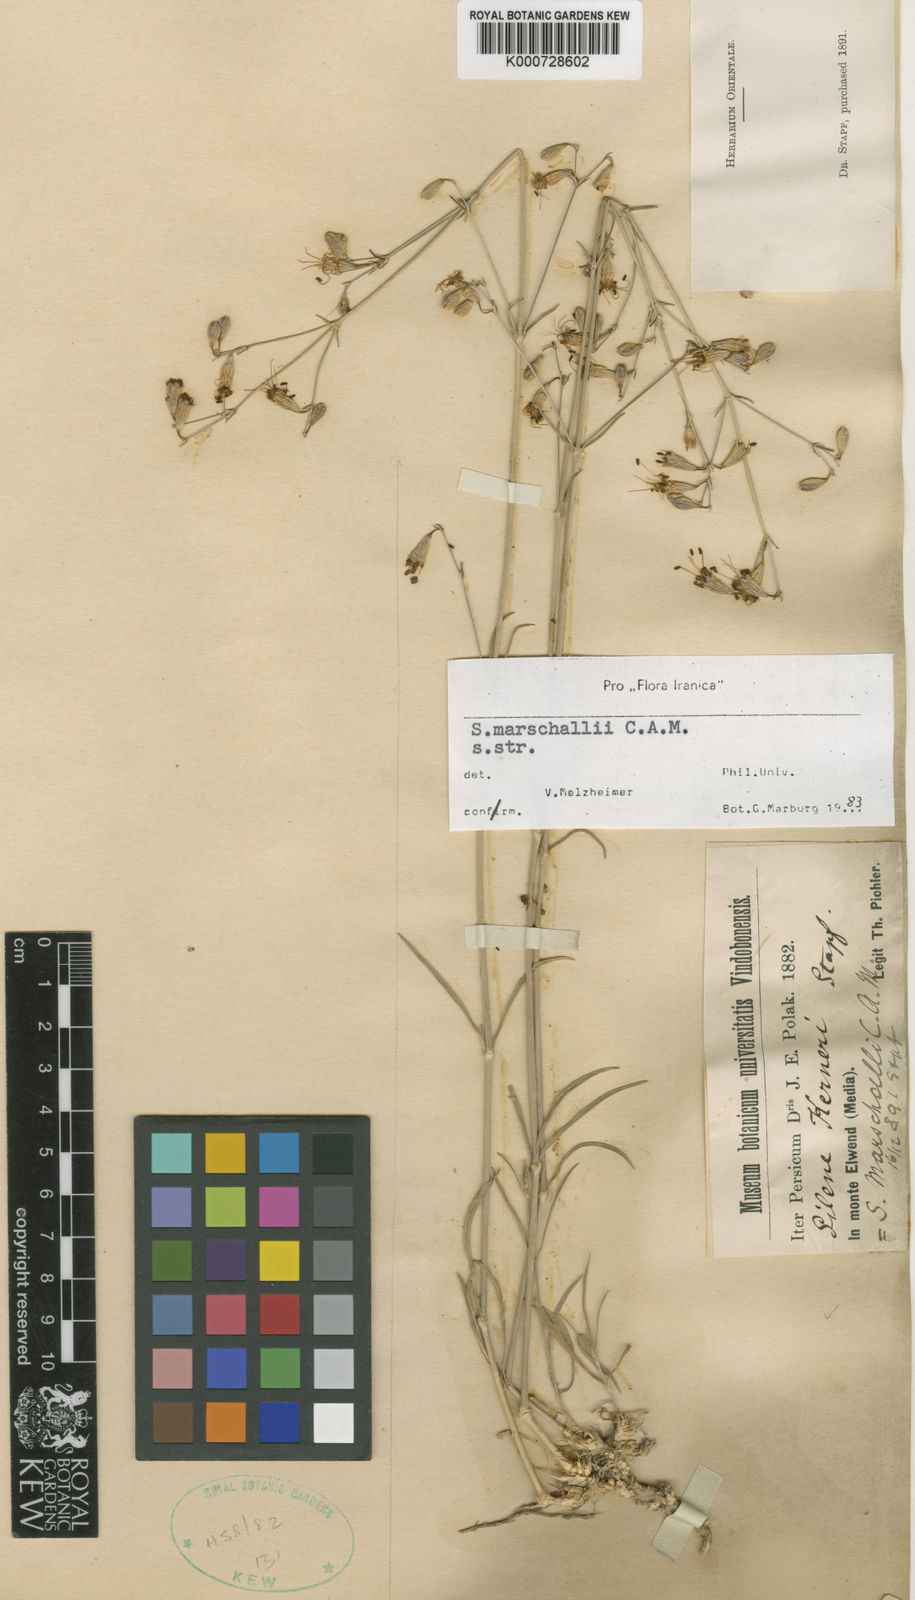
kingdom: Plantae
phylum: Tracheophyta
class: Magnoliopsida
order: Caryophyllales
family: Caryophyllaceae
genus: Silene
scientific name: Silene marschallii
